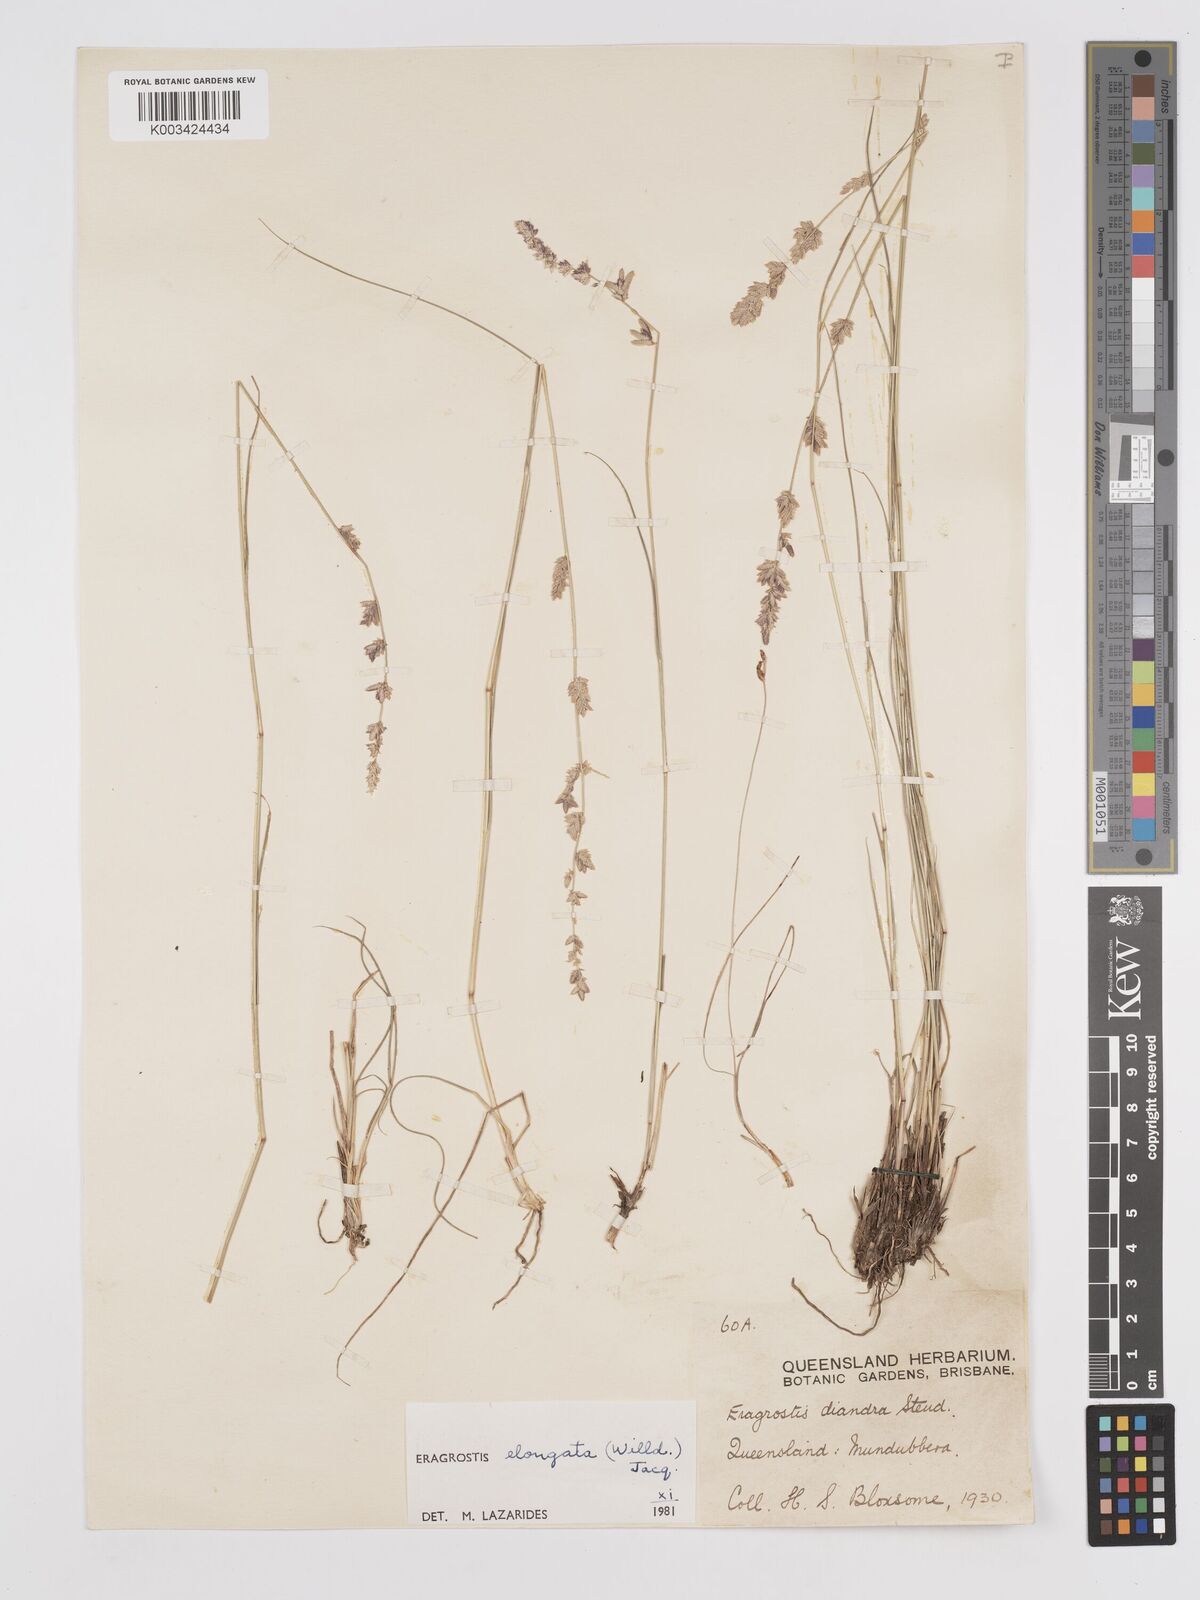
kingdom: Plantae
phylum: Tracheophyta
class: Liliopsida
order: Poales
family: Poaceae
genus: Eragrostis
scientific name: Eragrostis elongata
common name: Long lovegrass
